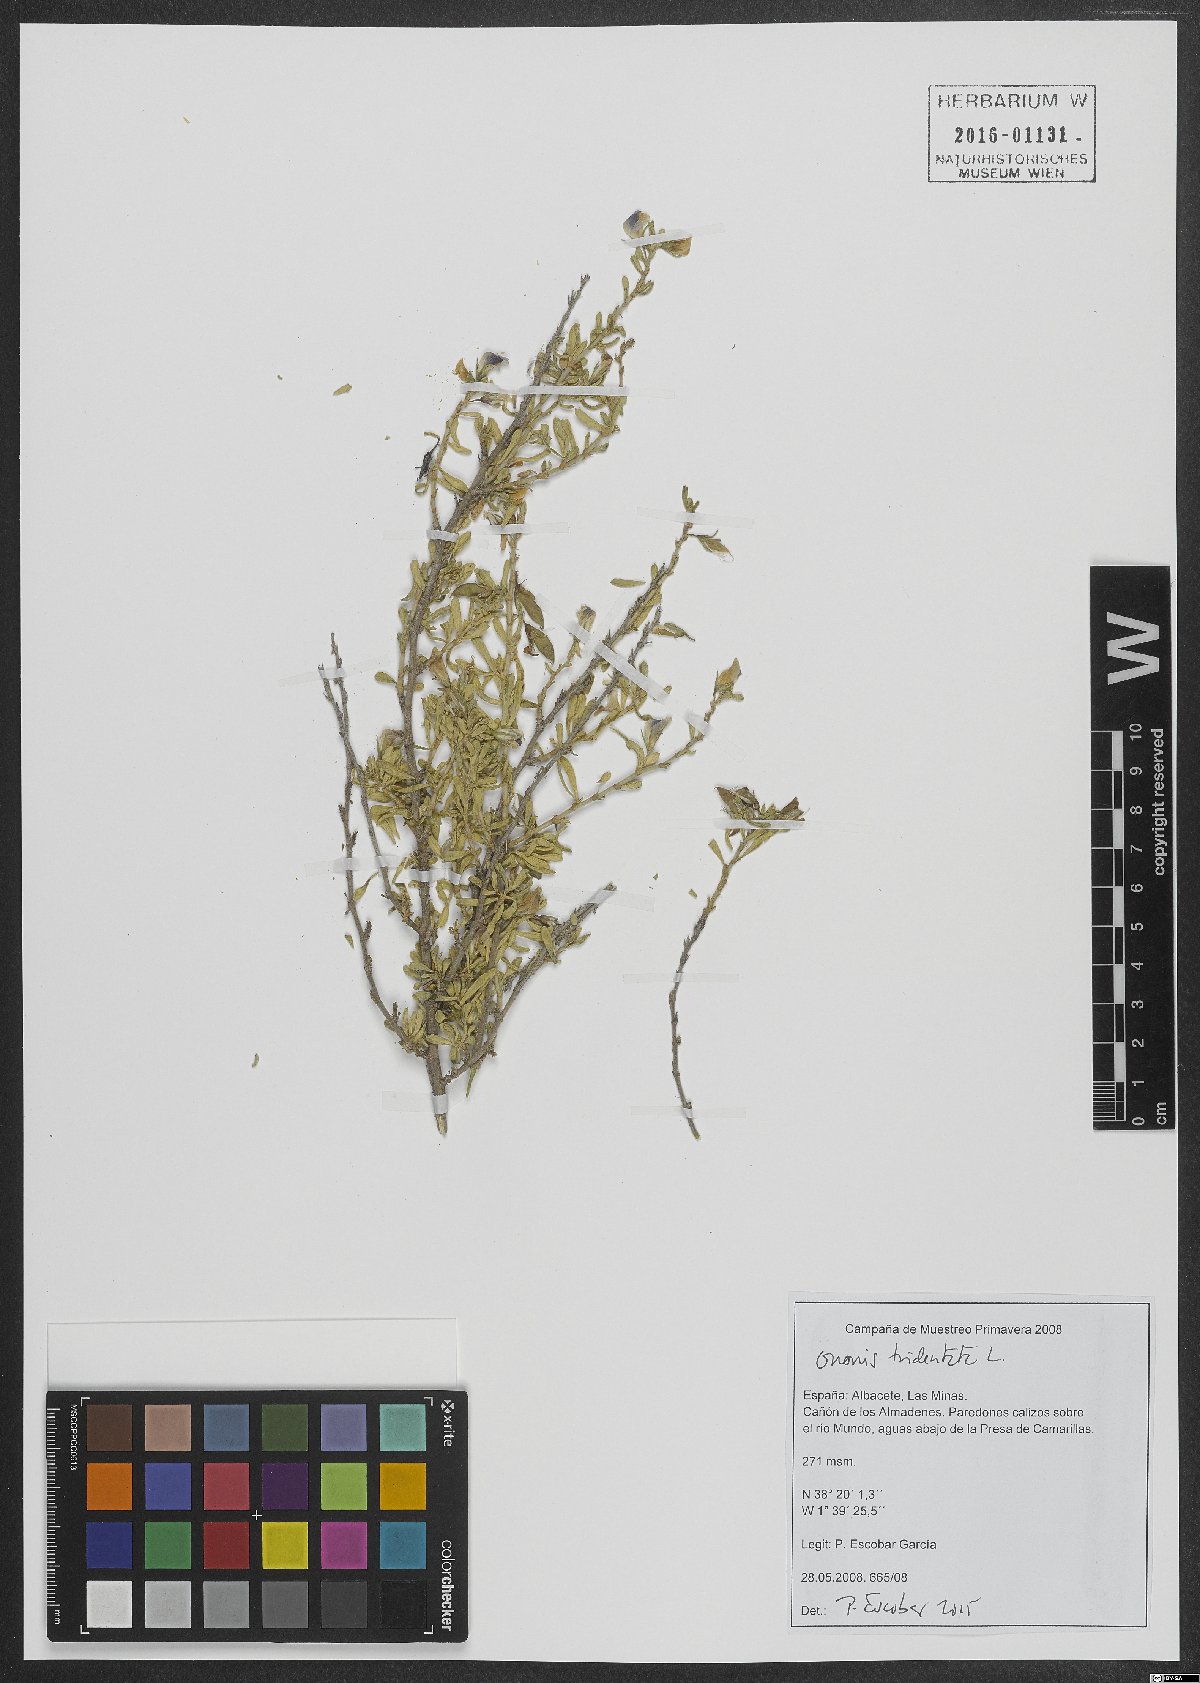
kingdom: Plantae
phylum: Tracheophyta
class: Magnoliopsida
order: Fabales
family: Fabaceae
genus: Ononis
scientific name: Ononis tridentata
